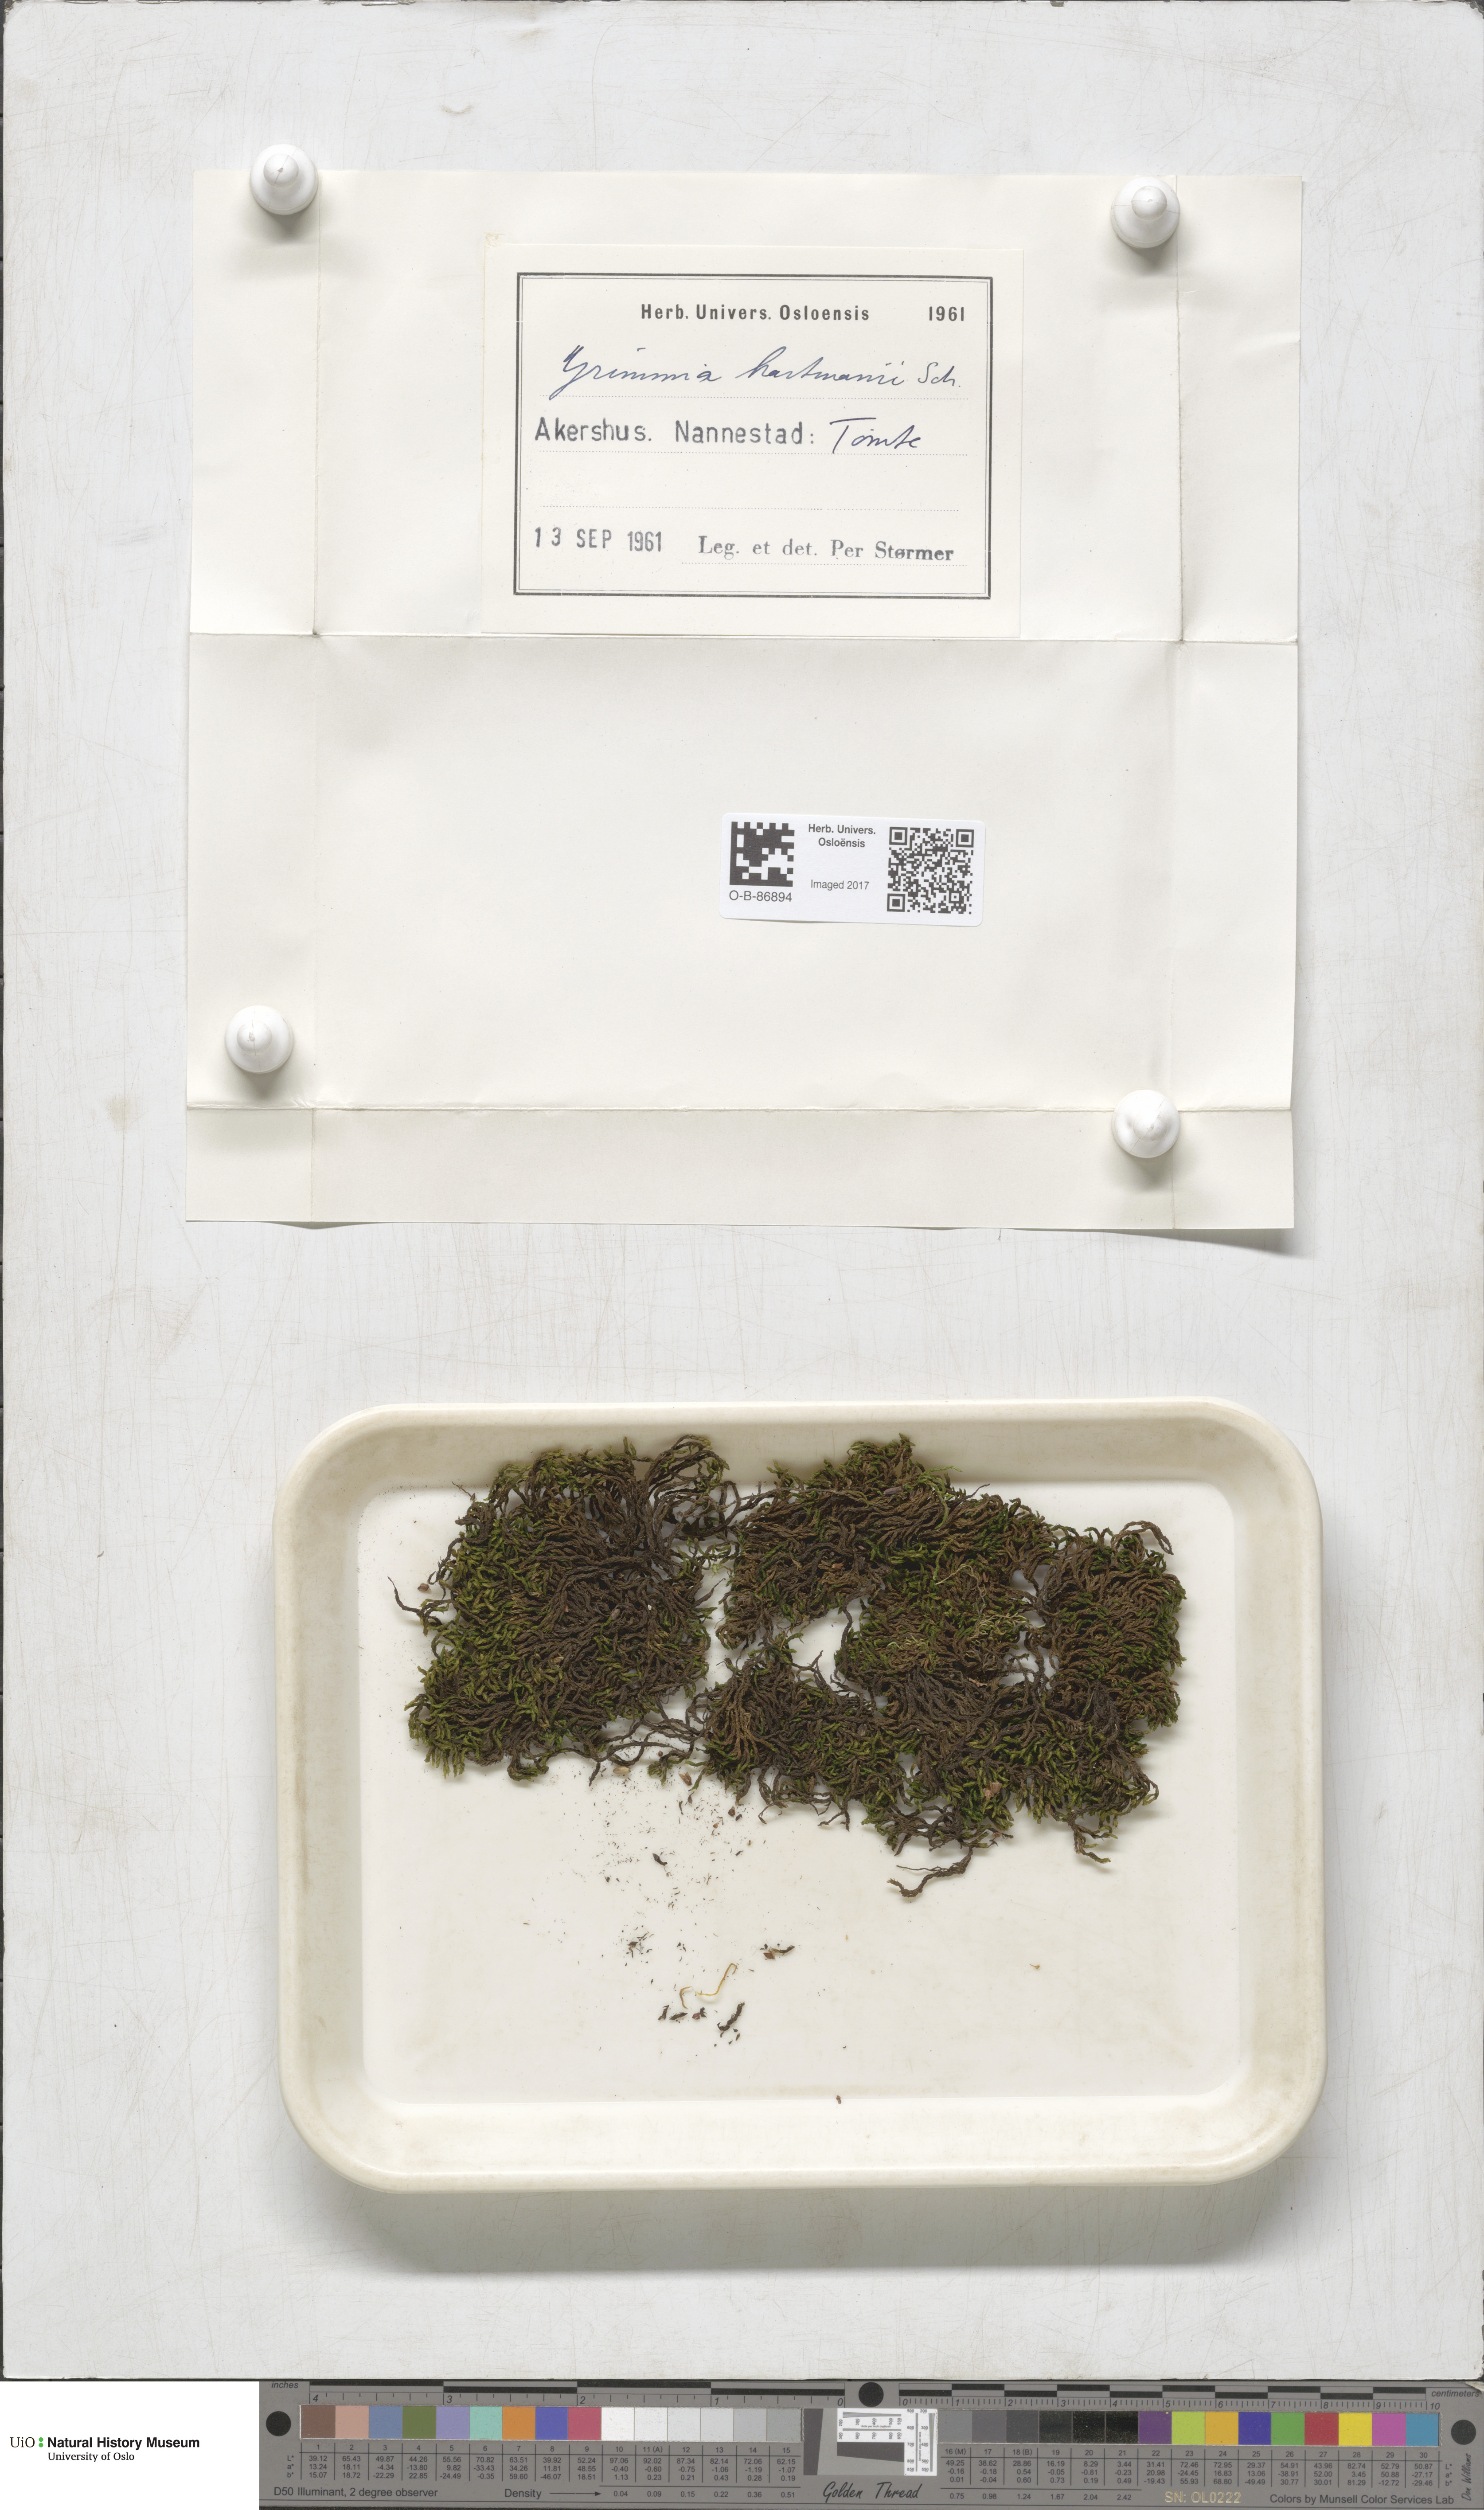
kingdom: Plantae
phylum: Bryophyta
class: Bryopsida
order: Grimmiales
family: Grimmiaceae
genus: Grimmia
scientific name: Grimmia hartmanii
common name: Hartman's grimmia
